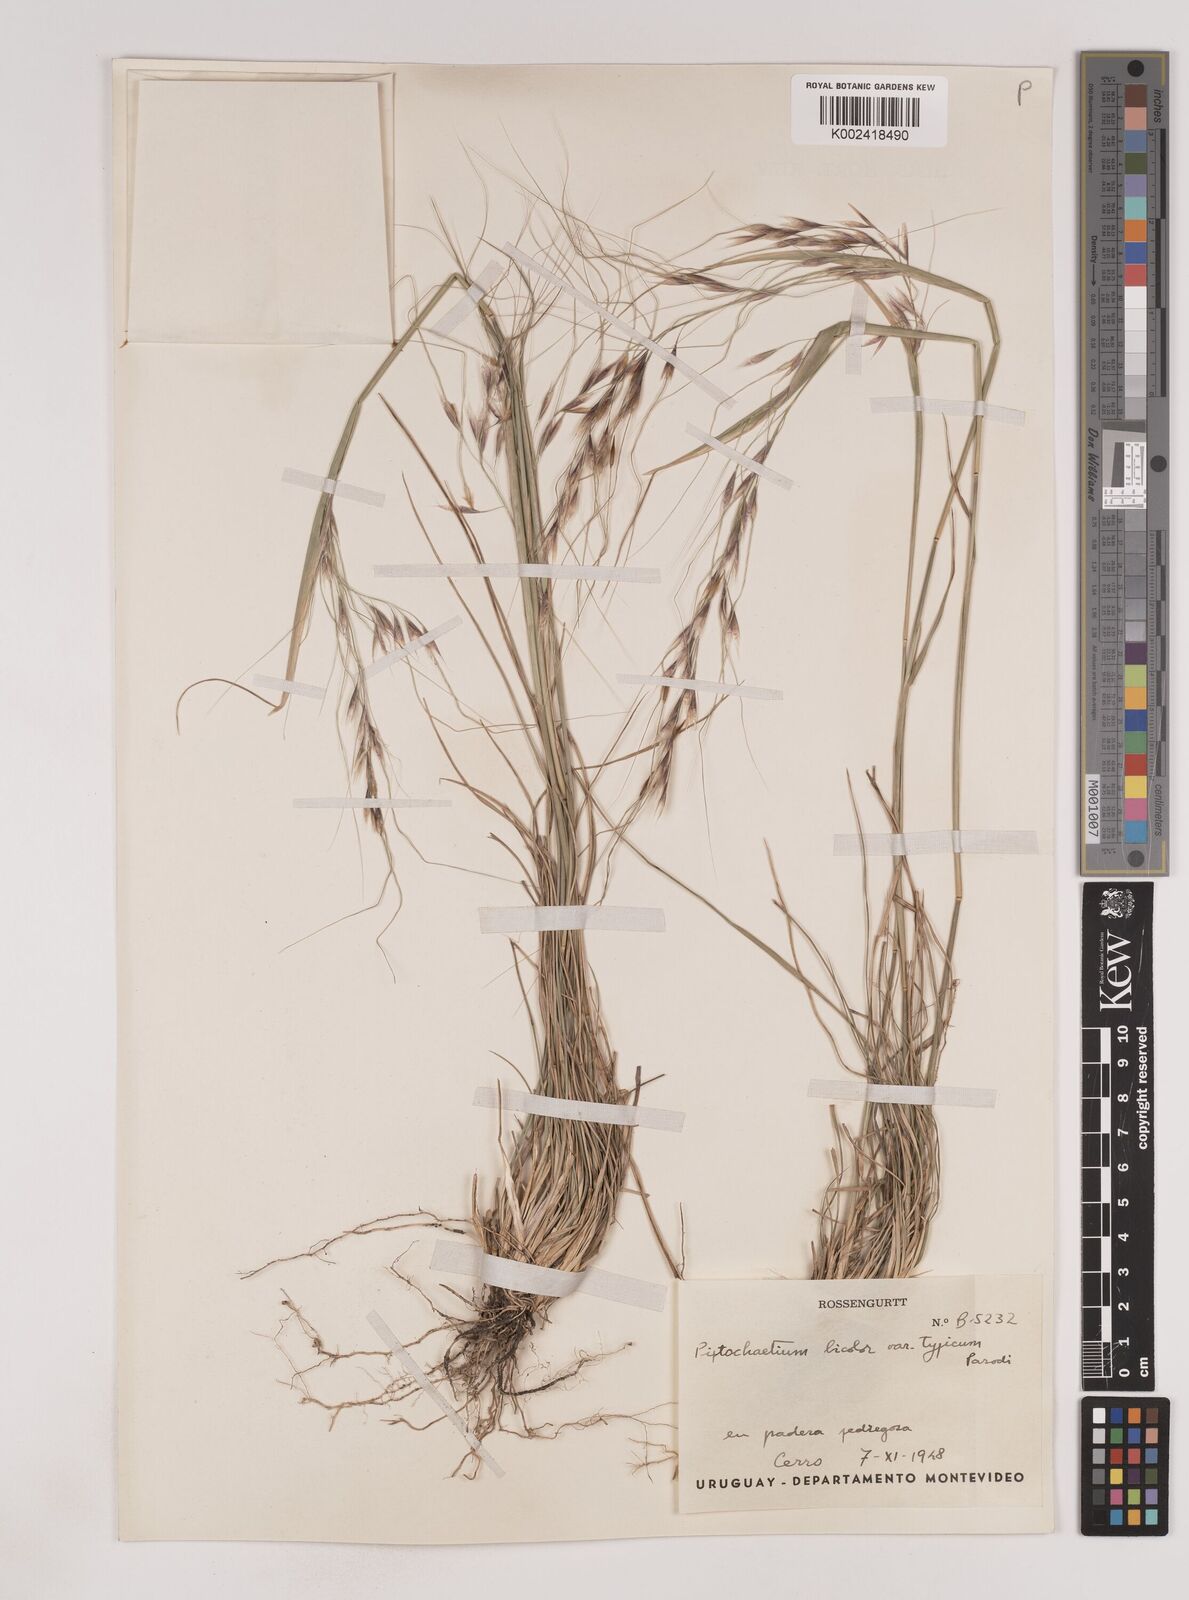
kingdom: Plantae
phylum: Tracheophyta
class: Liliopsida
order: Poales
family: Poaceae
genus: Piptochaetium
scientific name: Piptochaetium bicolor
